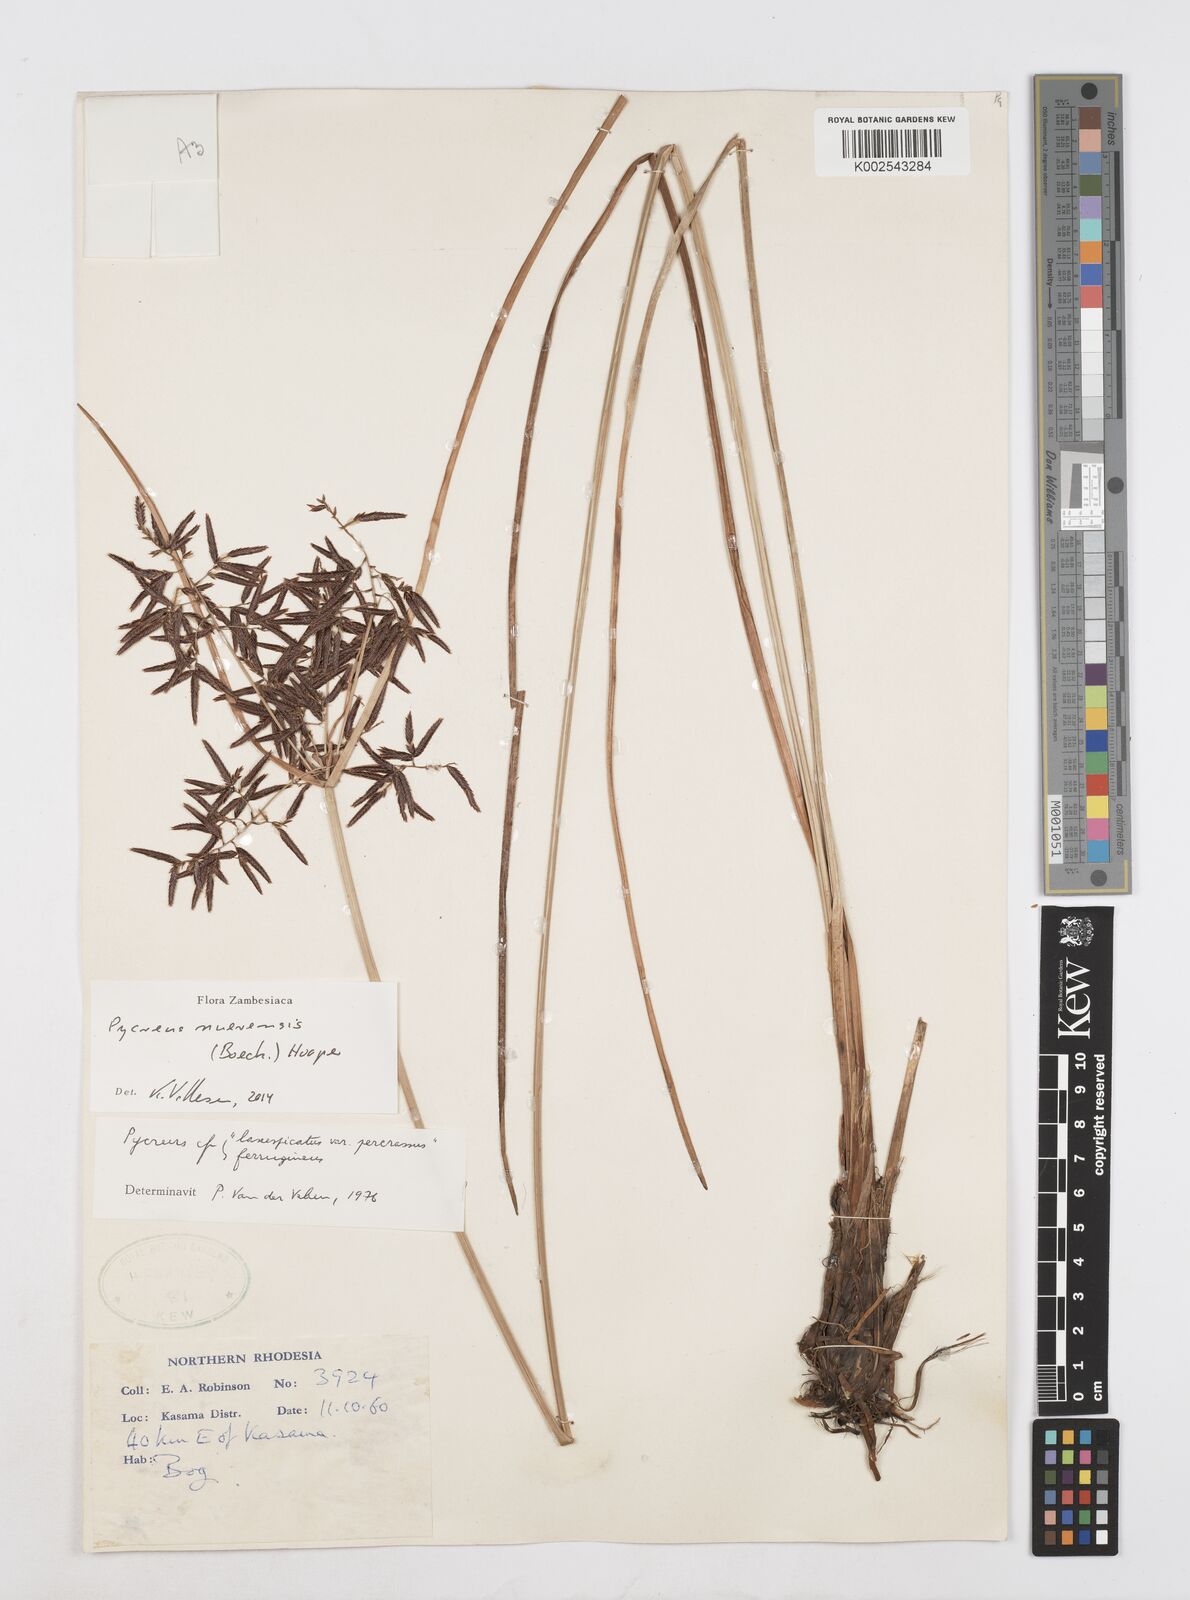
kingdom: Plantae
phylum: Tracheophyta
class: Liliopsida
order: Poales
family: Cyperaceae
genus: Cyperus
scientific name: Cyperus nuerensis
